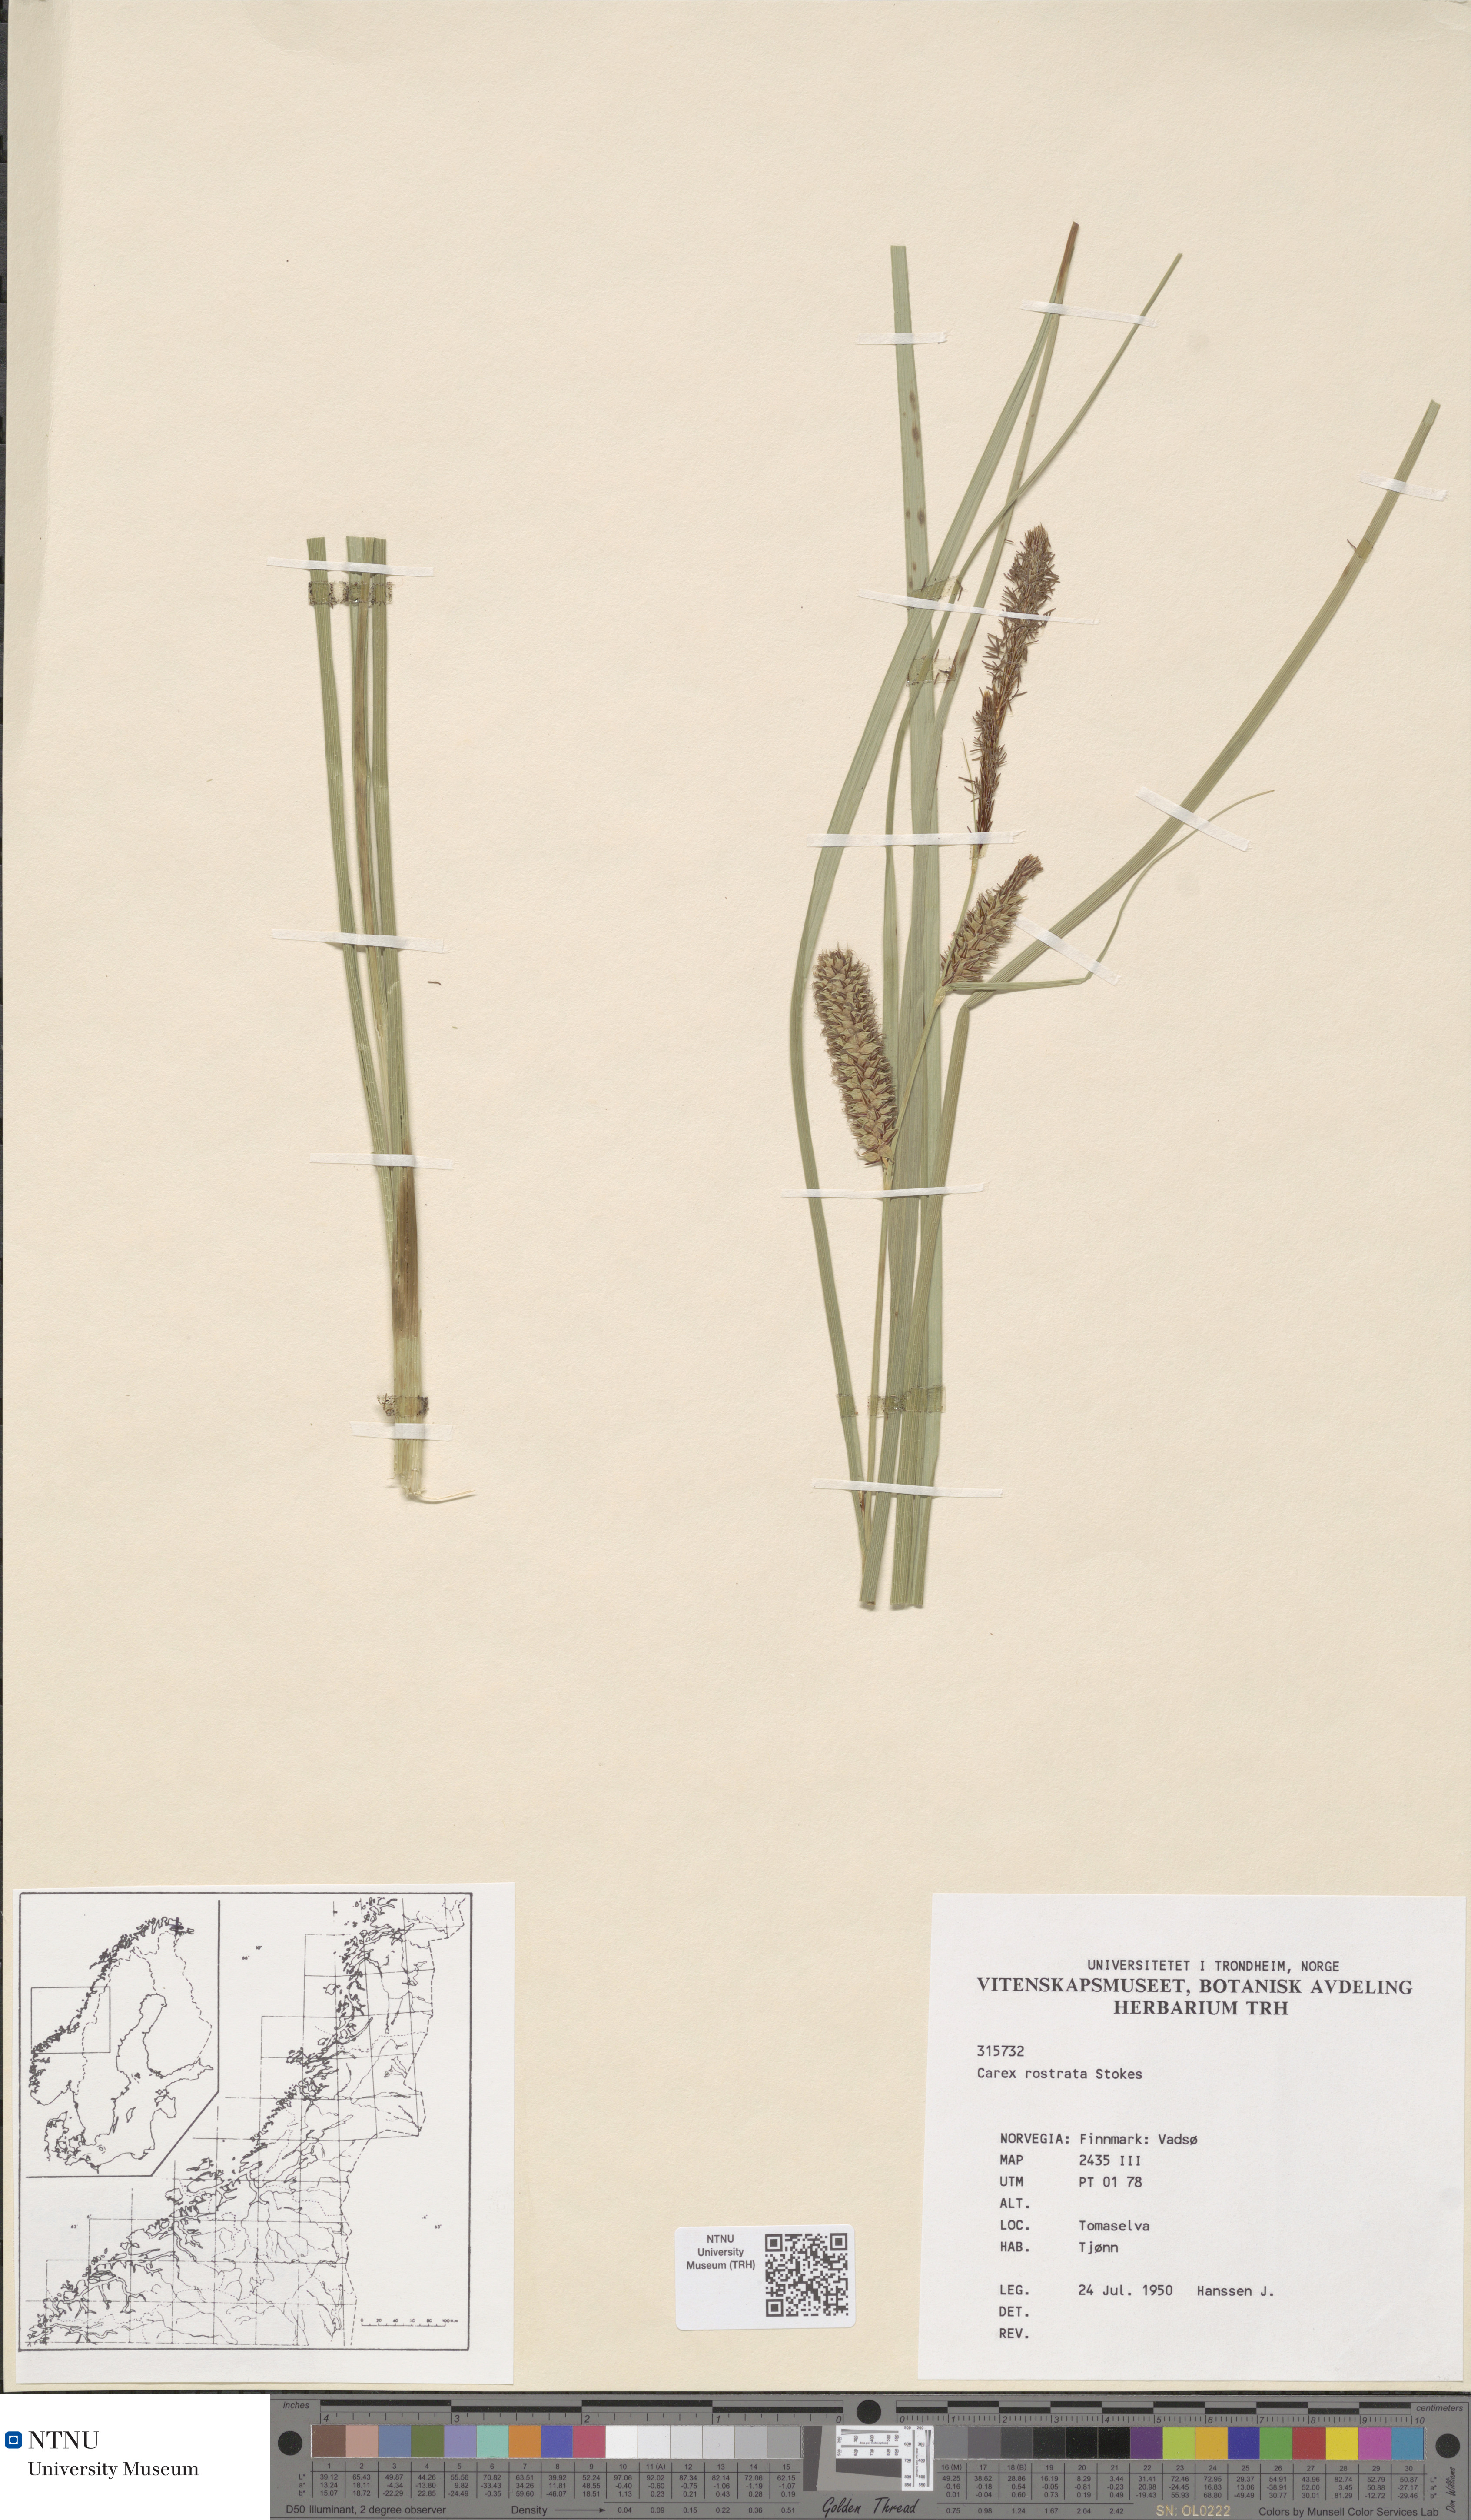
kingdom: Plantae
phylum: Tracheophyta
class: Liliopsida
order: Poales
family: Cyperaceae
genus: Carex
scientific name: Carex rostrata
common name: Bottle sedge
